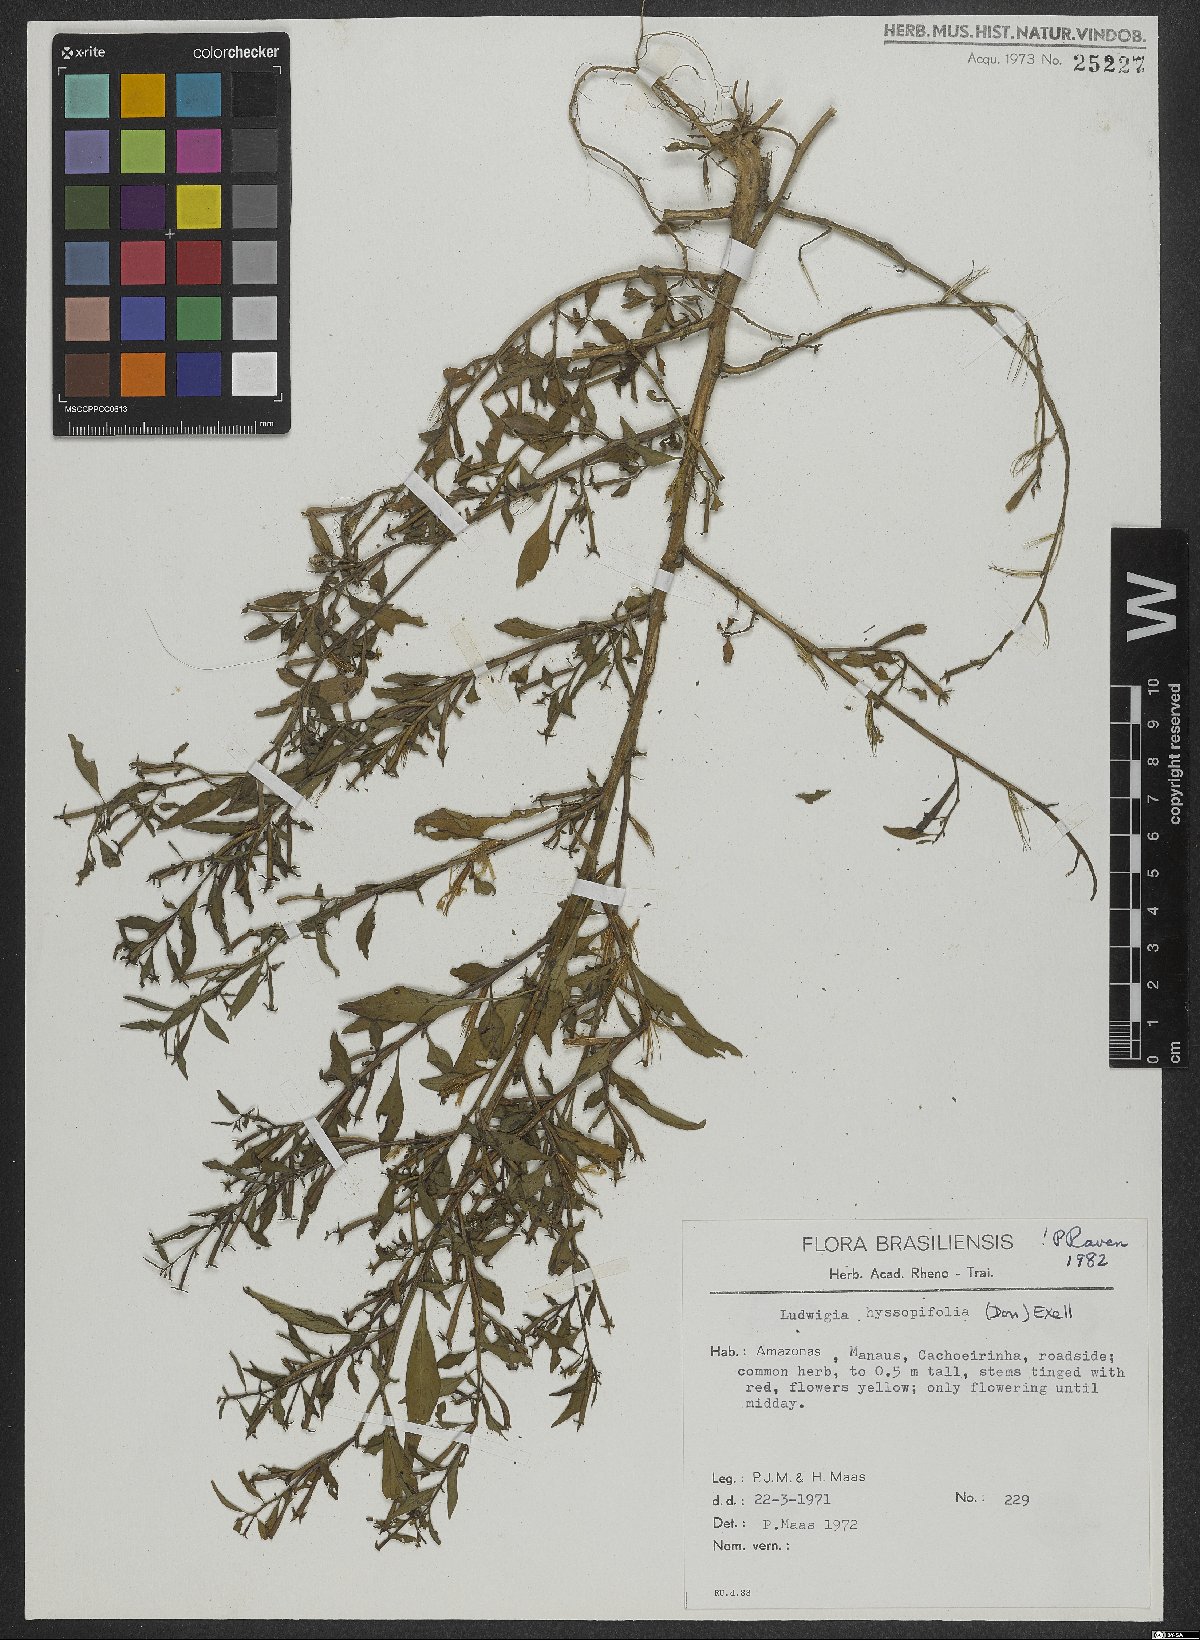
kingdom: Plantae
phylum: Tracheophyta
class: Magnoliopsida
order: Myrtales
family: Onagraceae
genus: Ludwigia
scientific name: Ludwigia hyssopifolia
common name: Linear leaf water primrose
